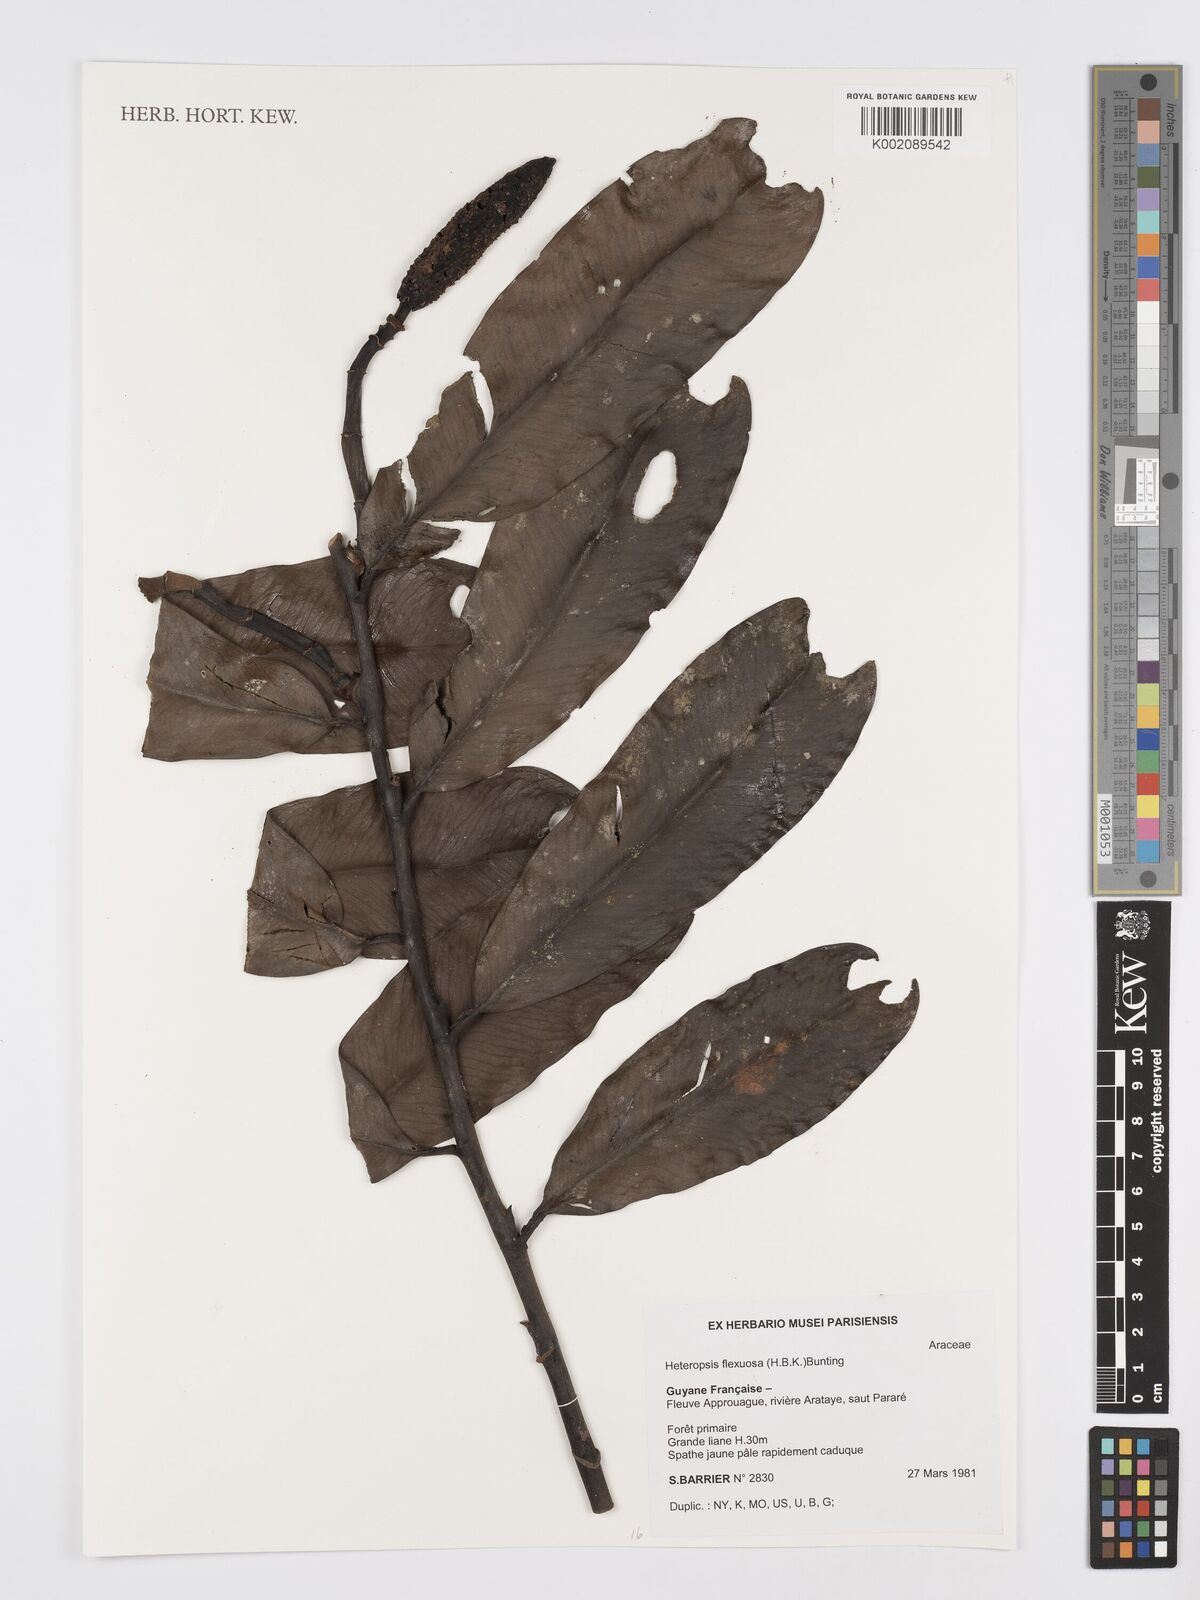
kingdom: Plantae
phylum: Tracheophyta
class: Liliopsida
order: Alismatales
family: Araceae
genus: Heteropsis
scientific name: Heteropsis flexuosa
